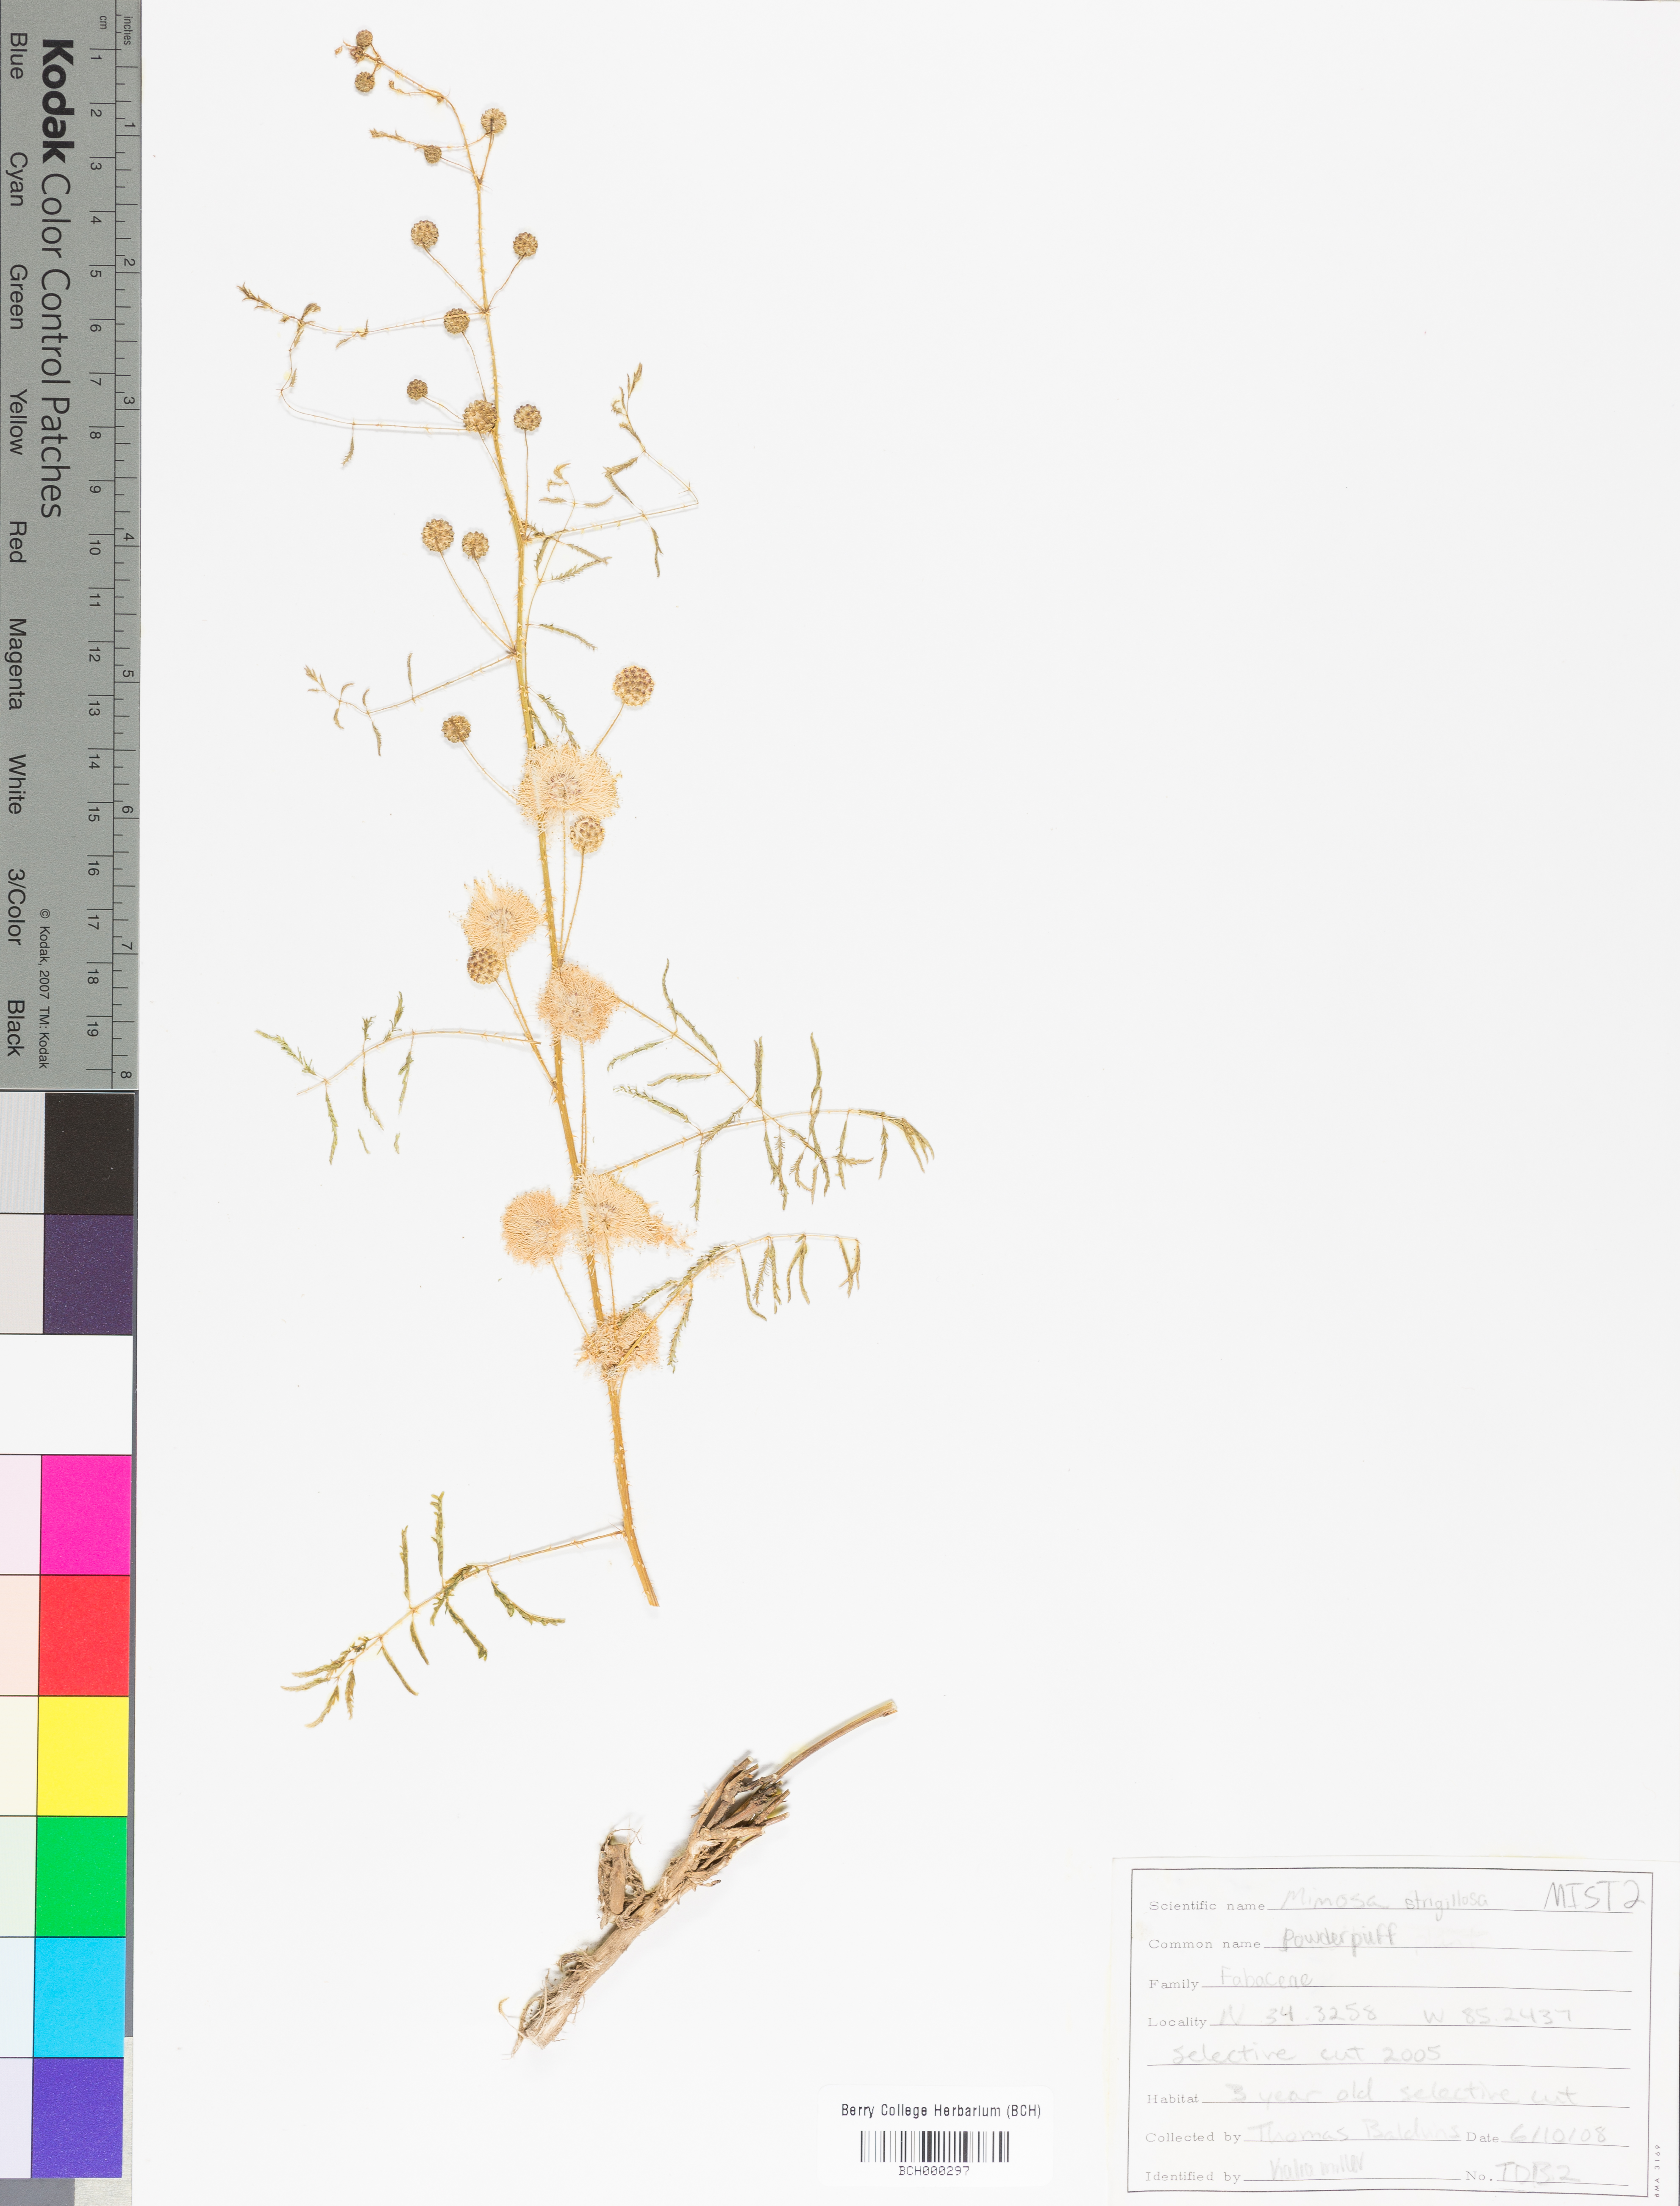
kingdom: Plantae
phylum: Tracheophyta
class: Magnoliopsida
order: Fabales
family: Fabaceae
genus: Mimosa
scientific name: Mimosa strigillosa
